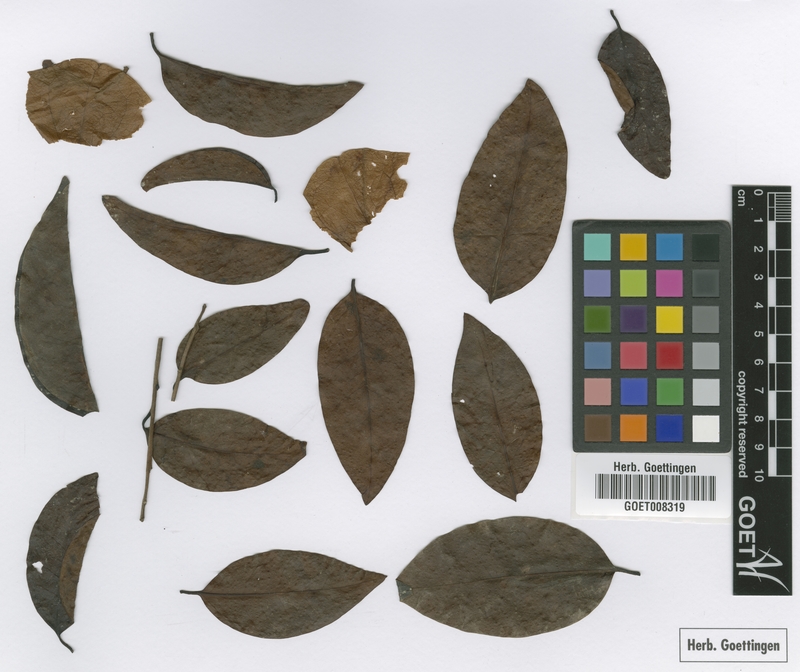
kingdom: Plantae
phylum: Tracheophyta
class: Magnoliopsida
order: Santalales
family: Aptandraceae
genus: Chaunochiton
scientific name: Chaunochiton kappleri
